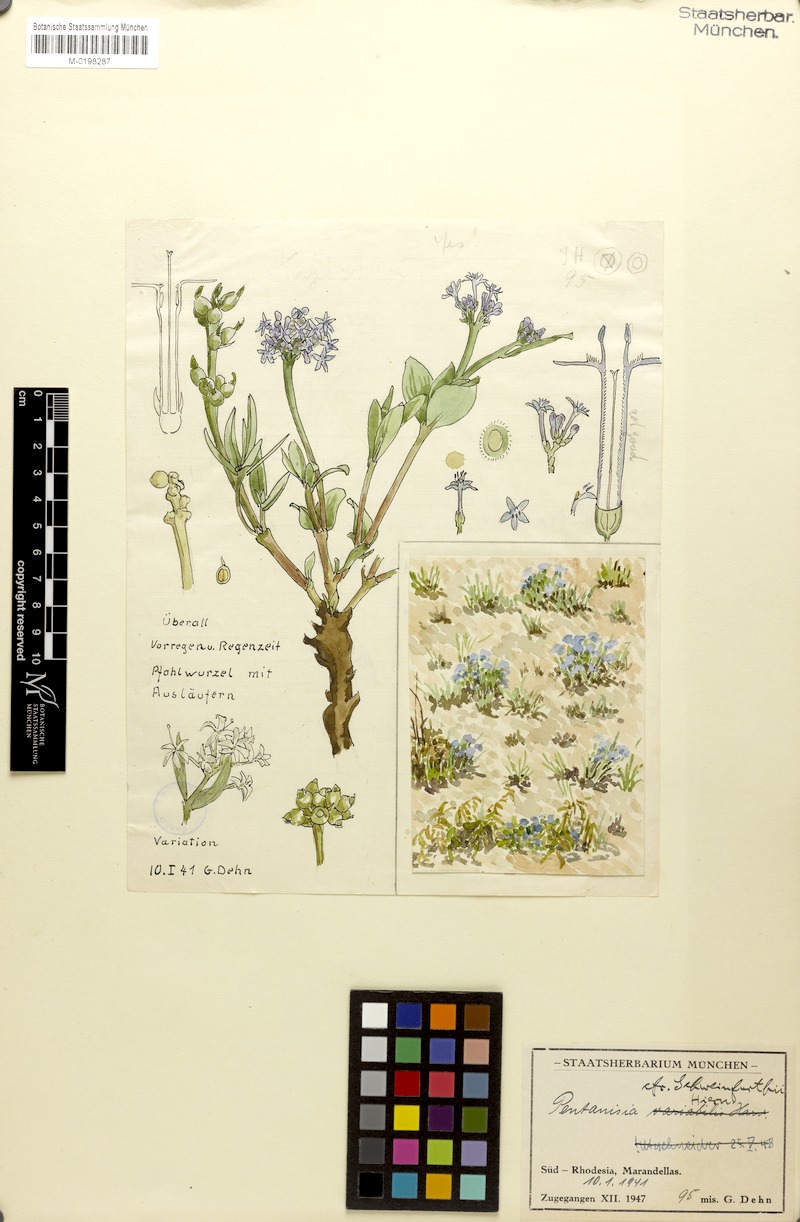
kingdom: Plantae
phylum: Tracheophyta
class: Magnoliopsida
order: Gentianales
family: Rubiaceae
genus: Pentanisia
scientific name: Pentanisia schweinfurthii
